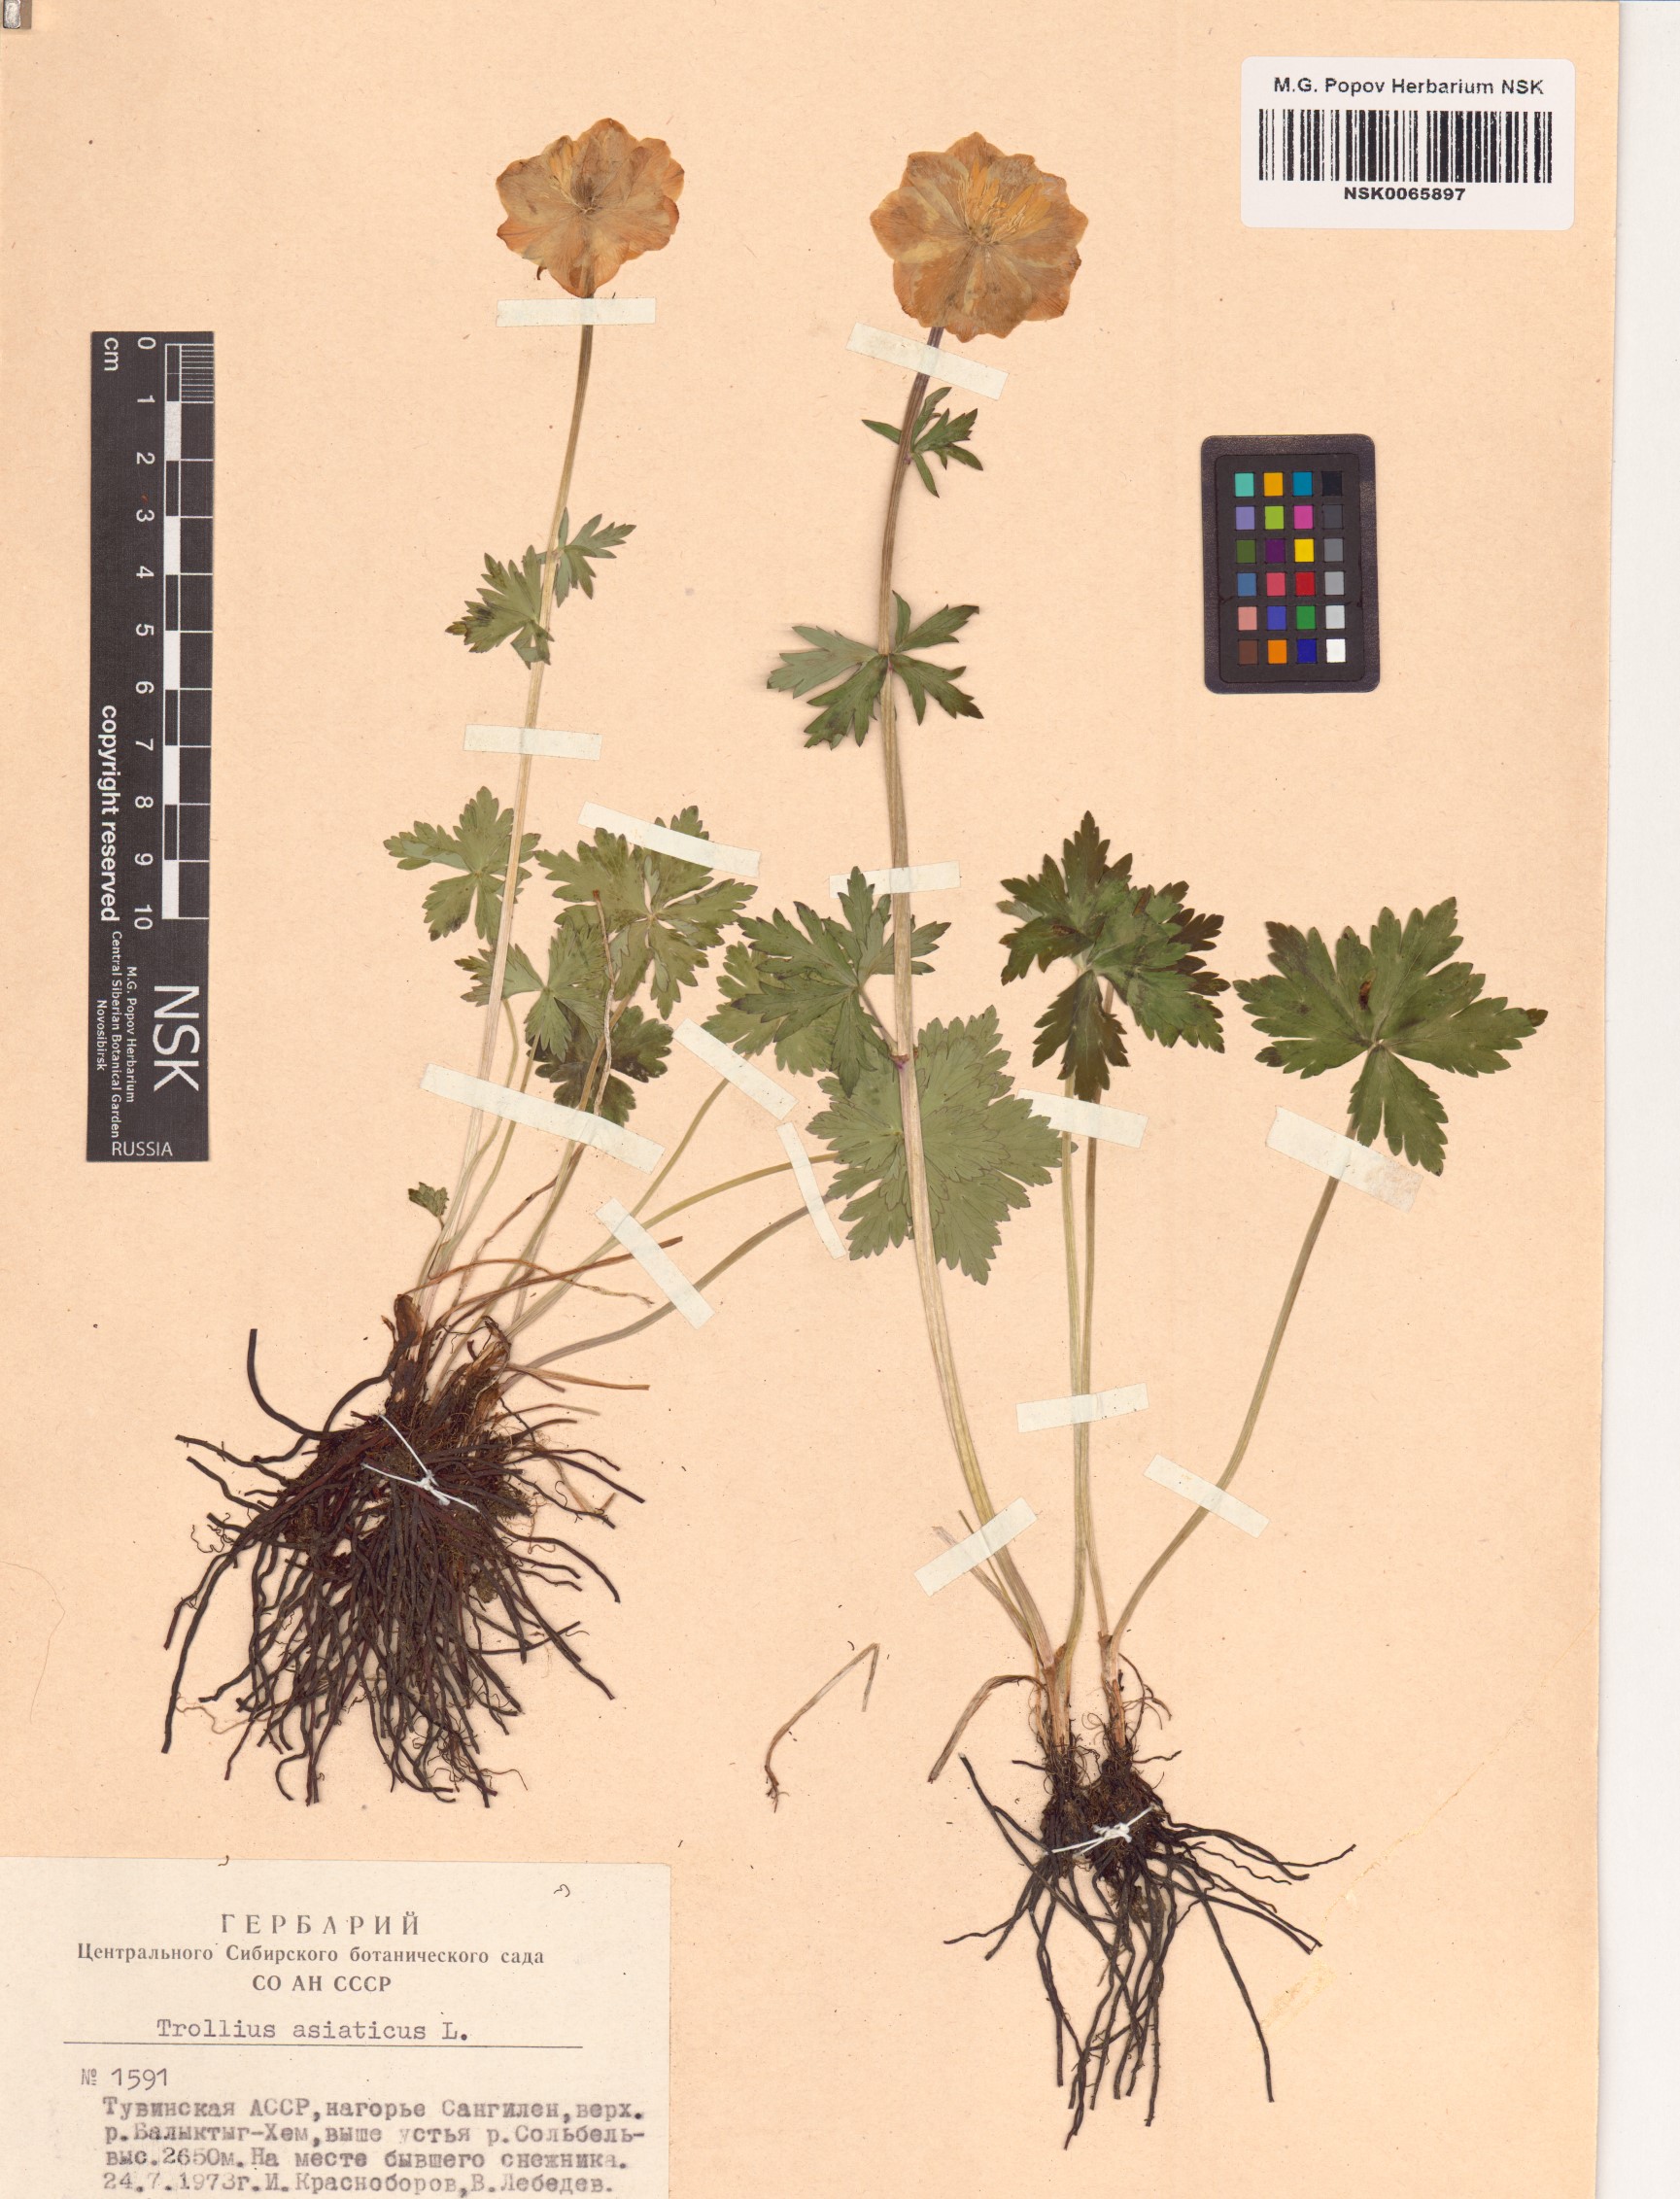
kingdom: Plantae
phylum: Tracheophyta
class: Magnoliopsida
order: Ranunculales
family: Ranunculaceae
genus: Trollius
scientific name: Trollius asiaticus
